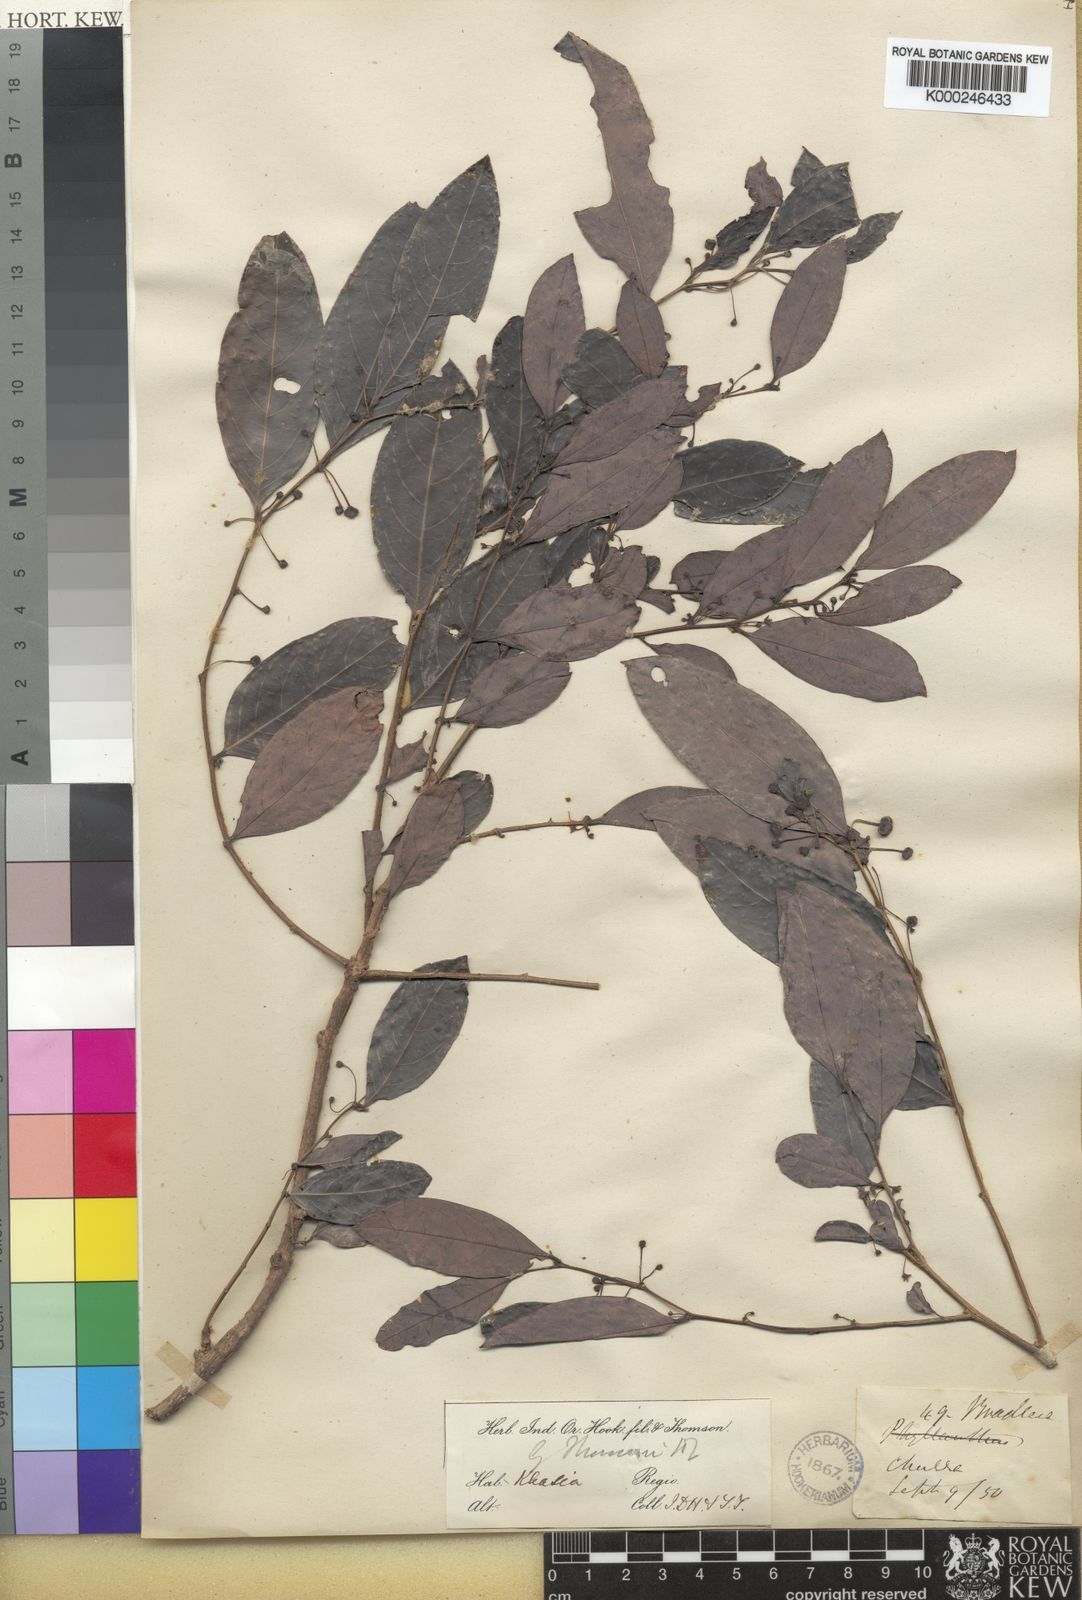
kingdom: Plantae
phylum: Tracheophyta
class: Magnoliopsida
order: Malpighiales
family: Phyllanthaceae
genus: Glochidion
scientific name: Glochidion thomsonii
